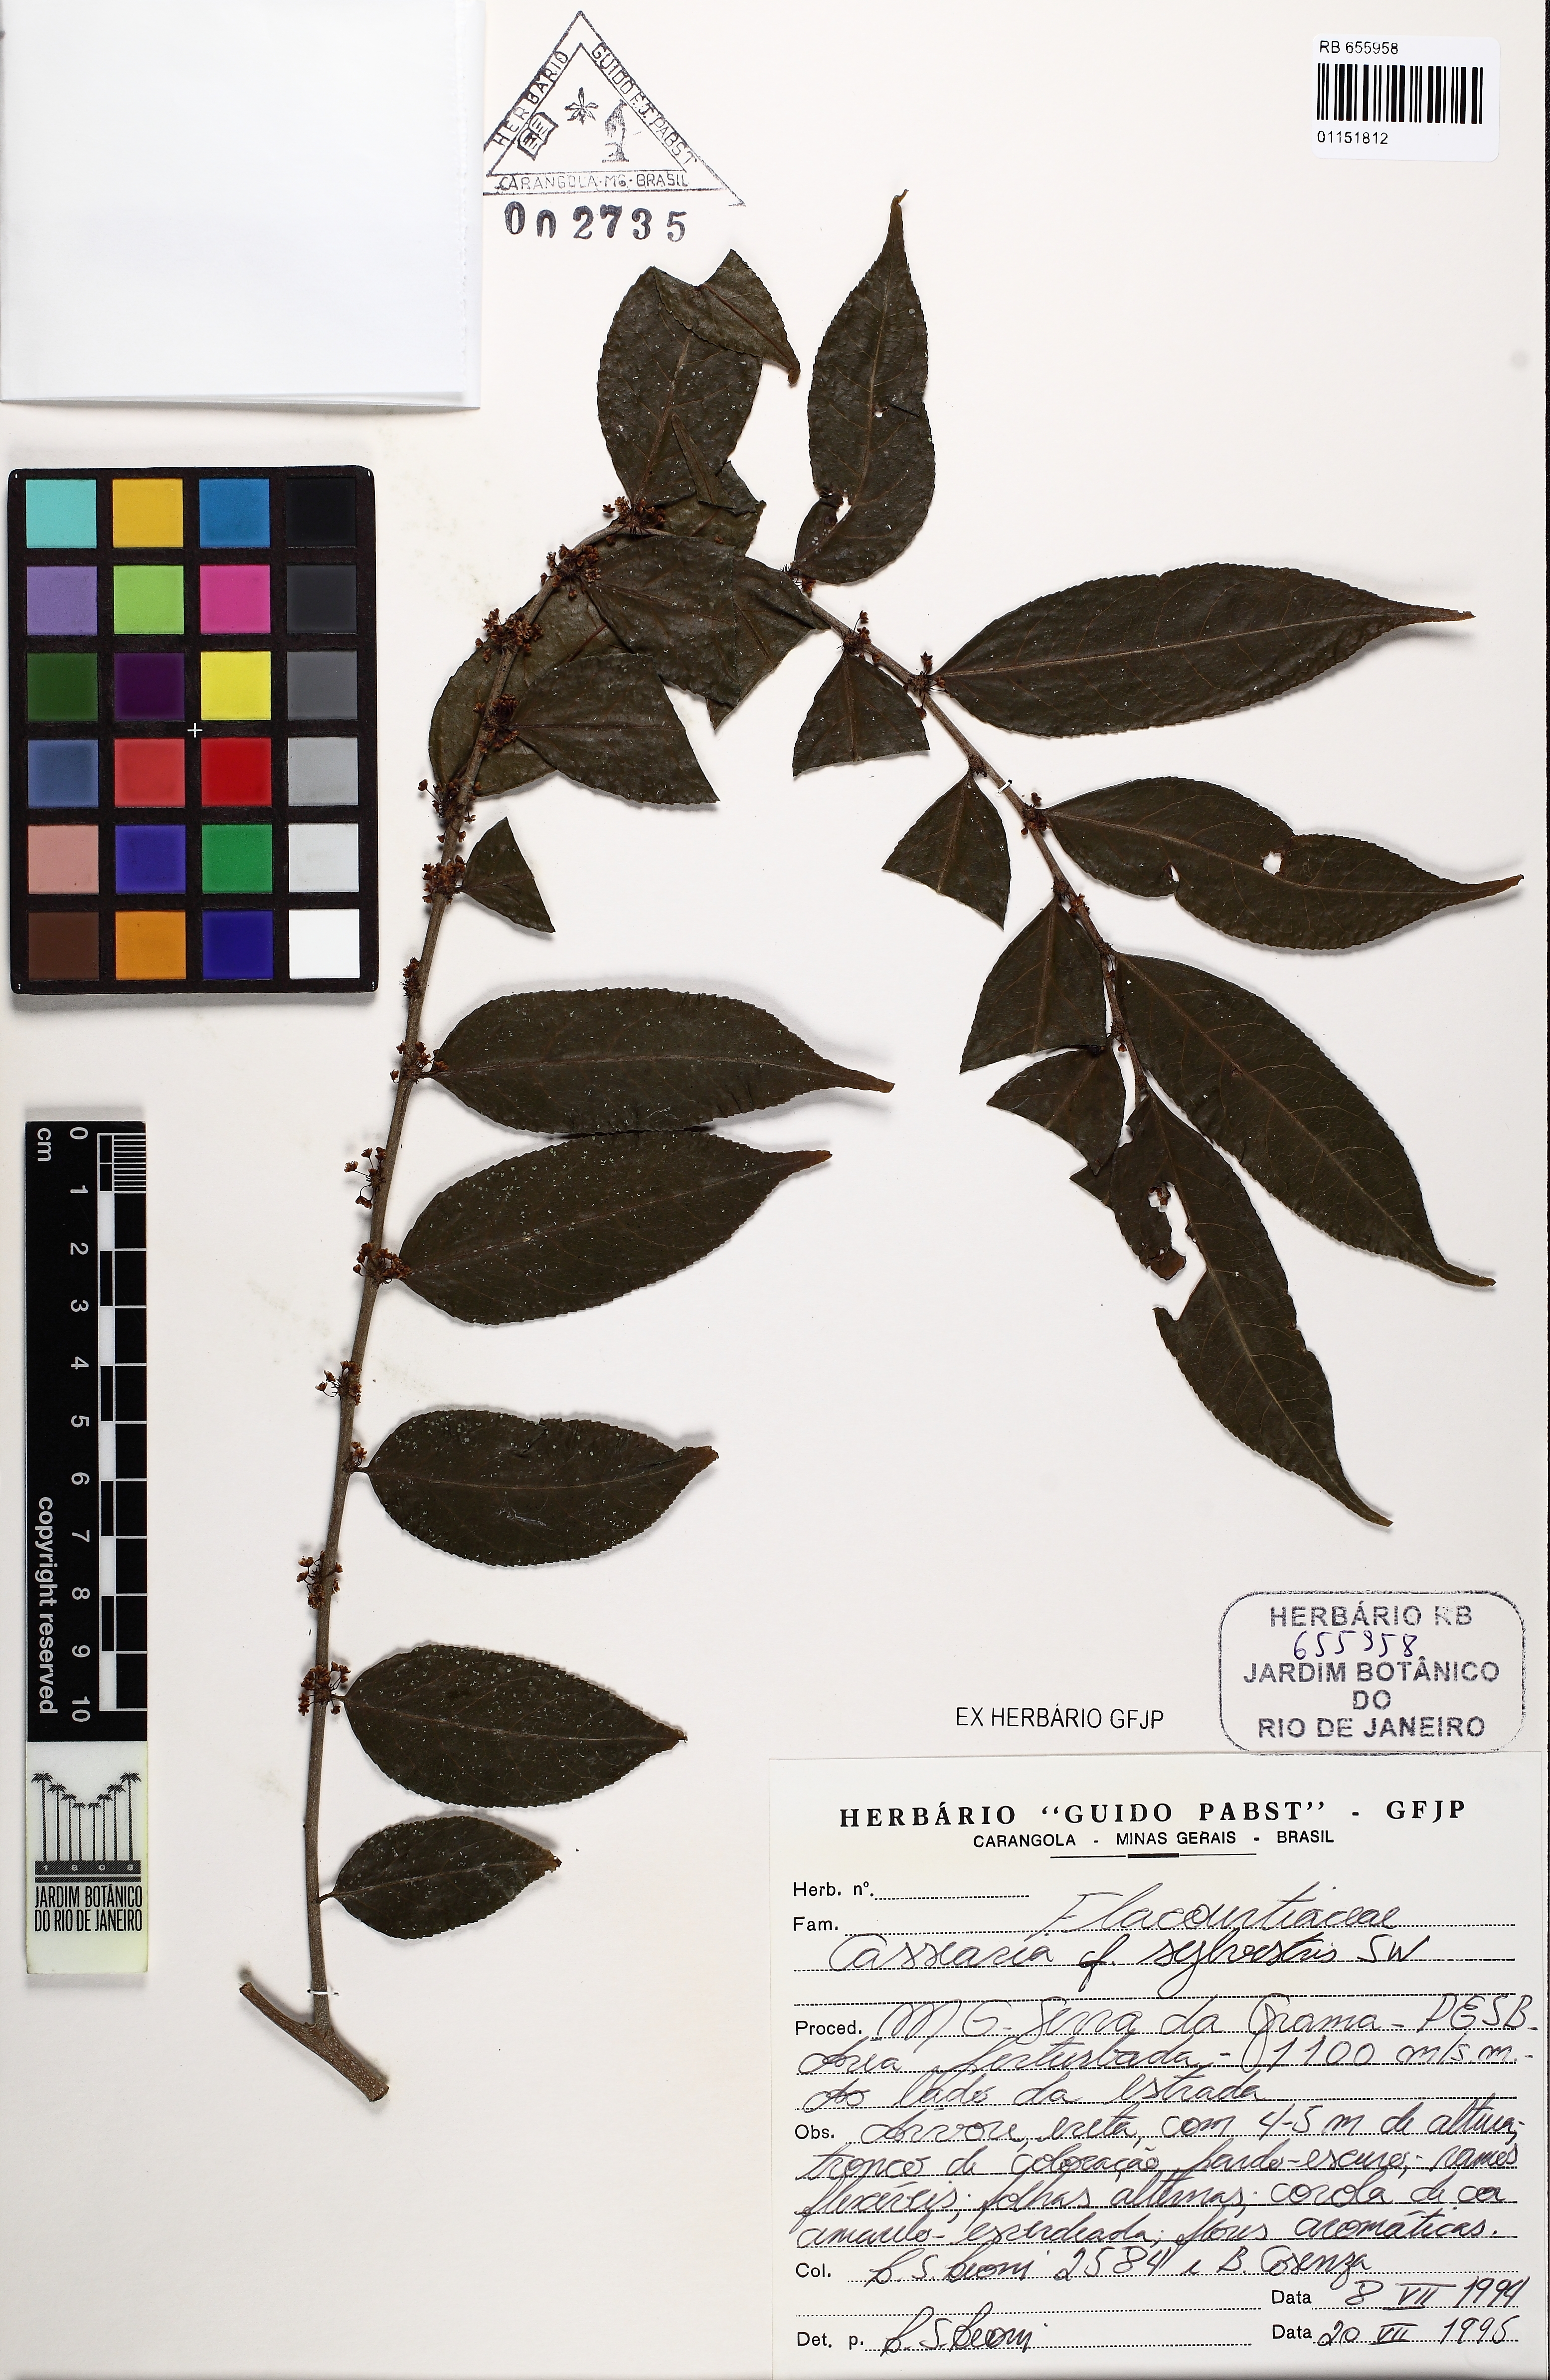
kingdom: Plantae
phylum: Tracheophyta
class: Magnoliopsida
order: Malpighiales
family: Salicaceae
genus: Casearia
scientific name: Casearia sylvestris
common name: Wild sage
